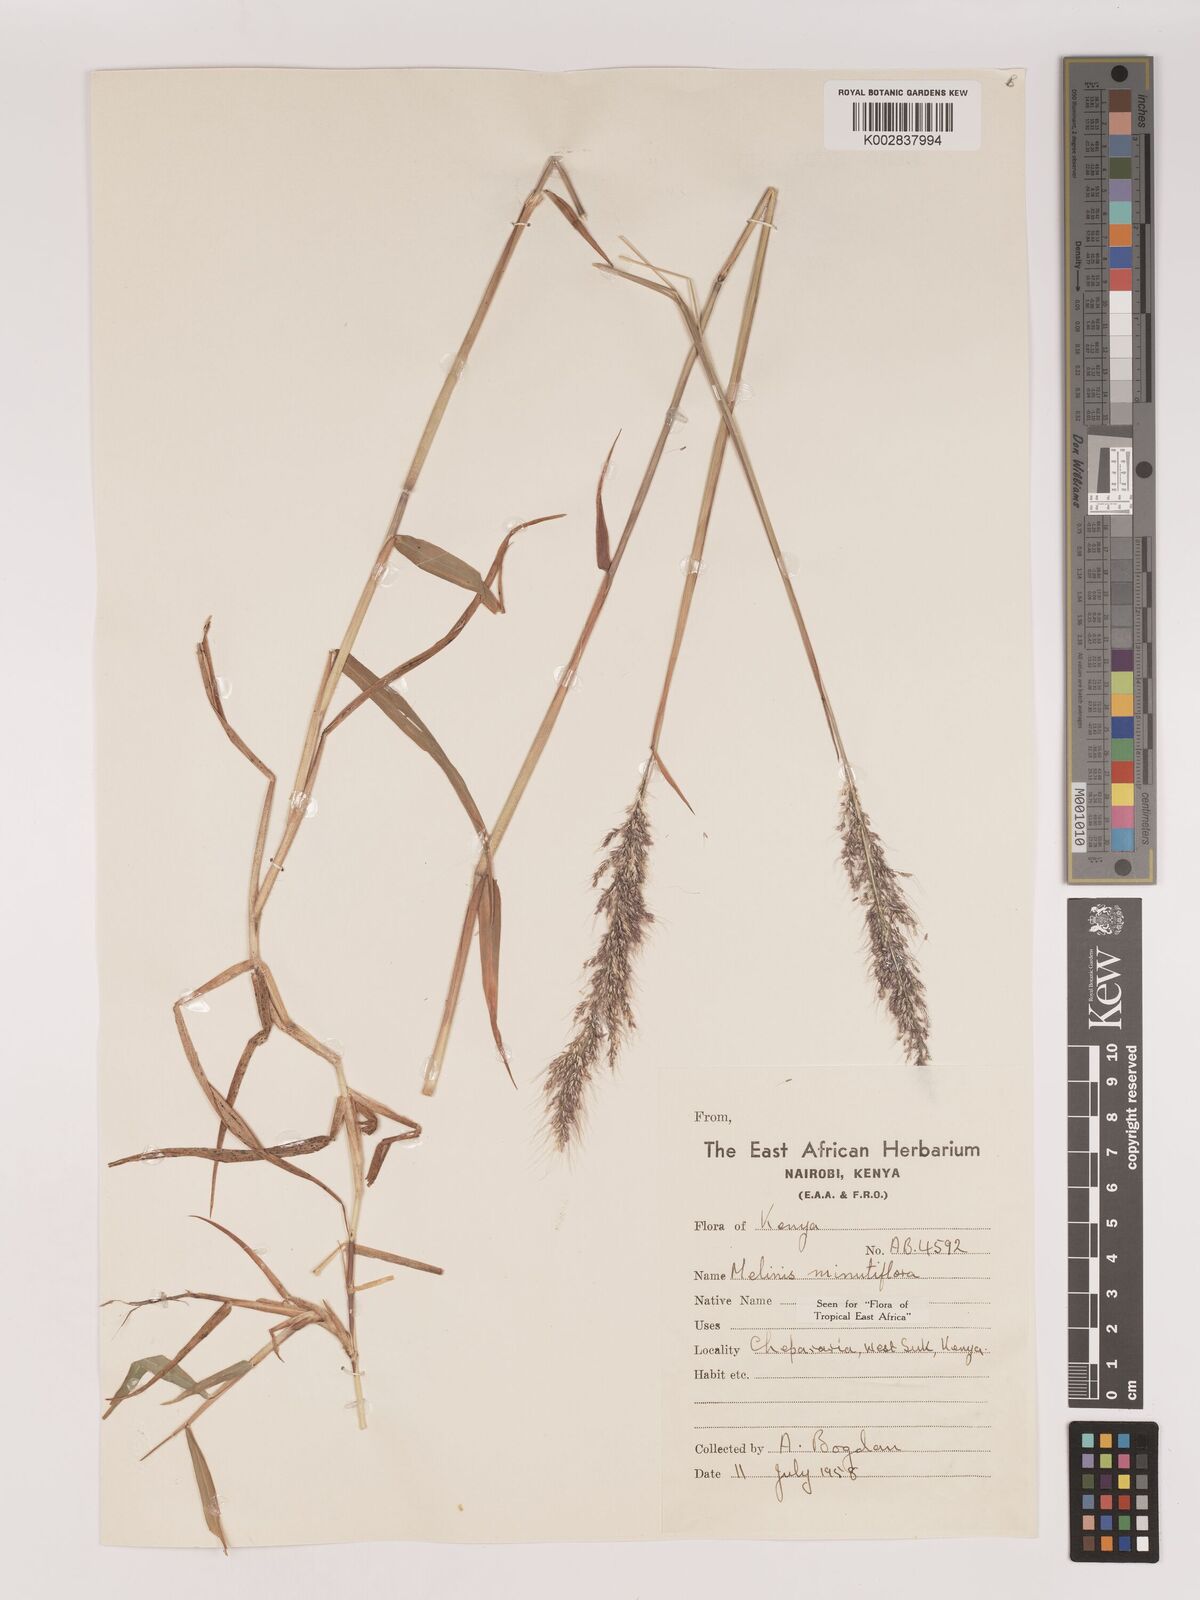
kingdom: Plantae
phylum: Tracheophyta
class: Liliopsida
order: Poales
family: Poaceae
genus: Melinis
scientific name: Melinis minutiflora
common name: Molassesgrass
